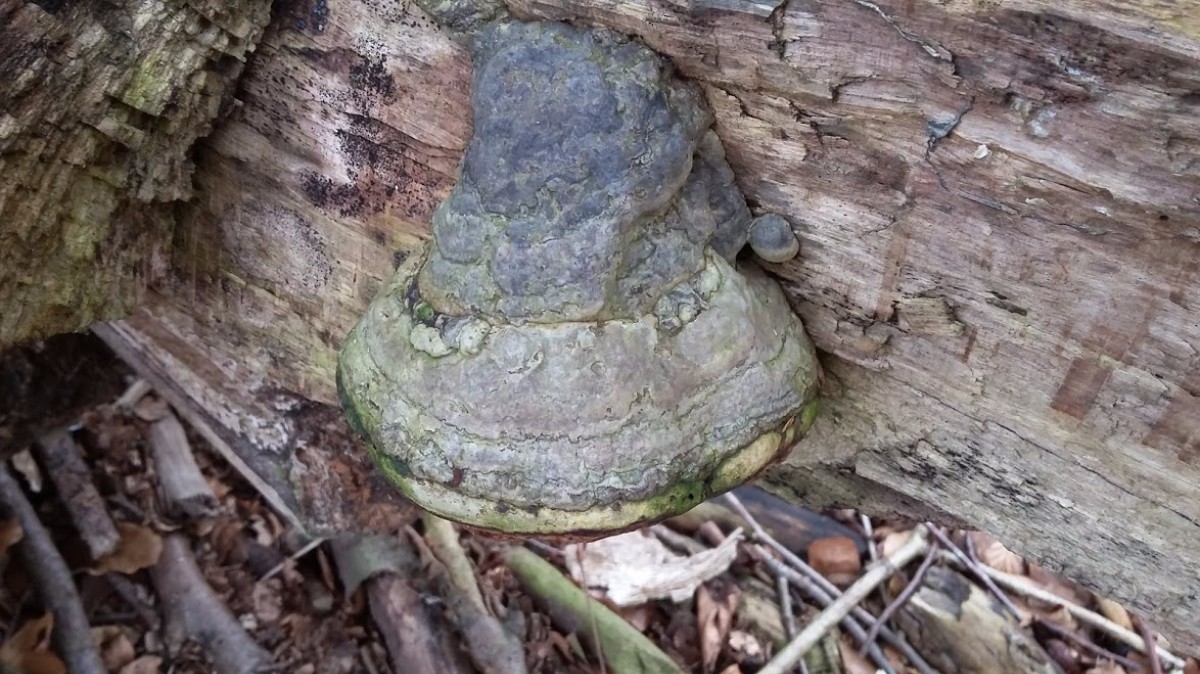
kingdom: Fungi
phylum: Basidiomycota
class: Agaricomycetes
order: Polyporales
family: Polyporaceae
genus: Fomes
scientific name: Fomes fomentarius
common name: tøndersvamp
